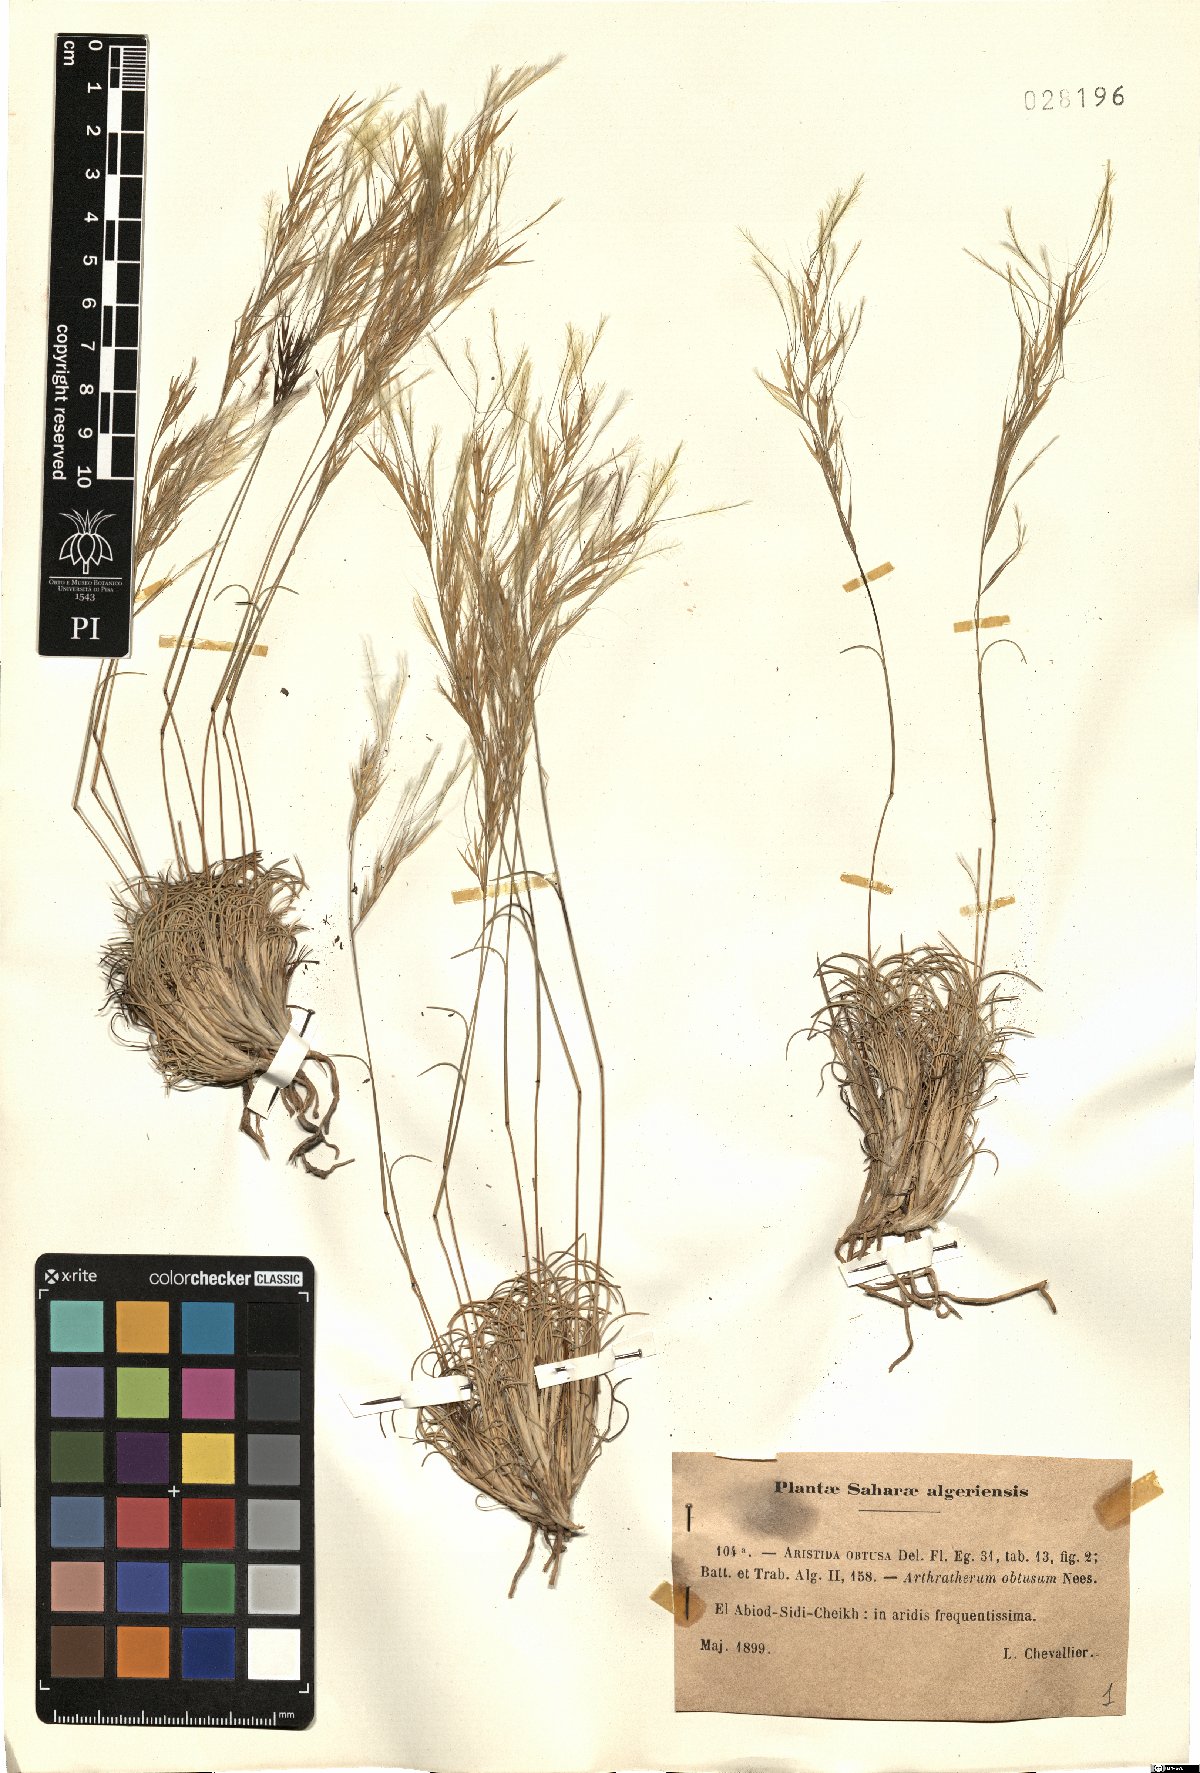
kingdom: Plantae
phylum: Tracheophyta
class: Liliopsida
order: Poales
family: Poaceae
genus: Stipagrostis
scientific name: Stipagrostis obtusa
